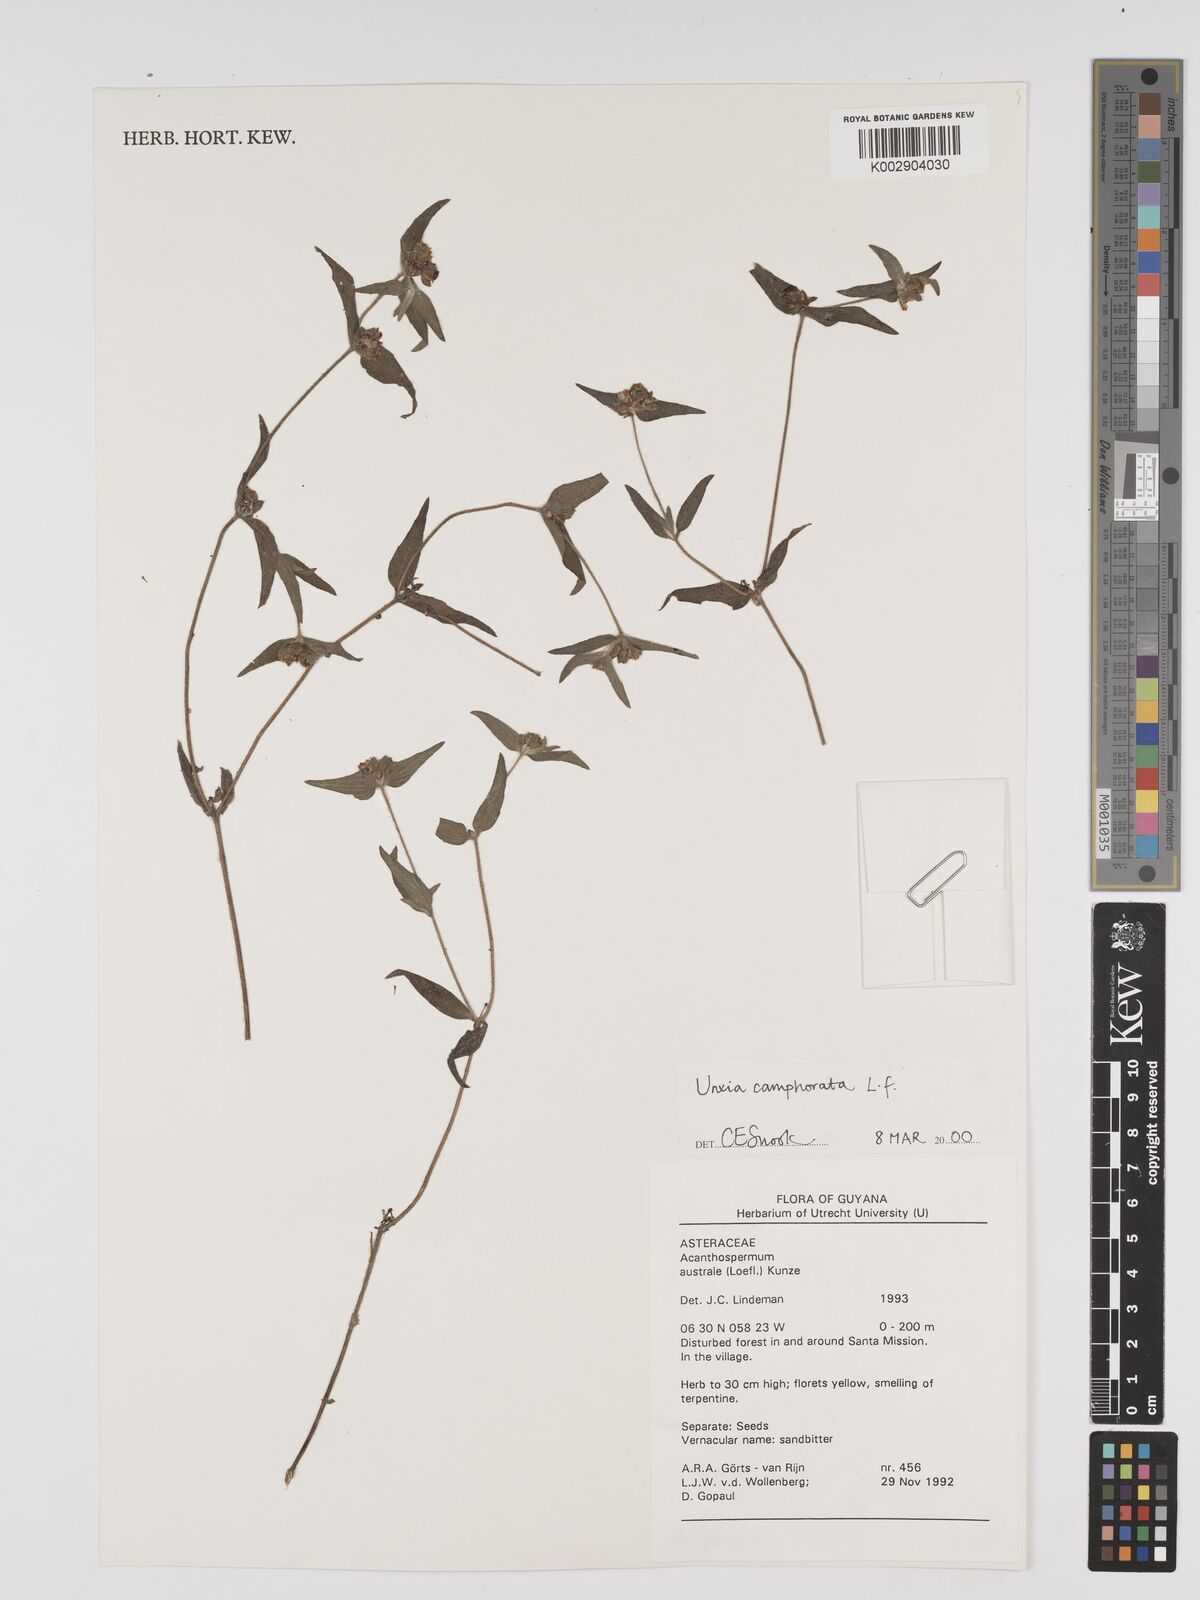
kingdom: Plantae
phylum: Tracheophyta
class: Magnoliopsida
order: Asterales
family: Asteraceae
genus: Unxia
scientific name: Unxia camphorata
